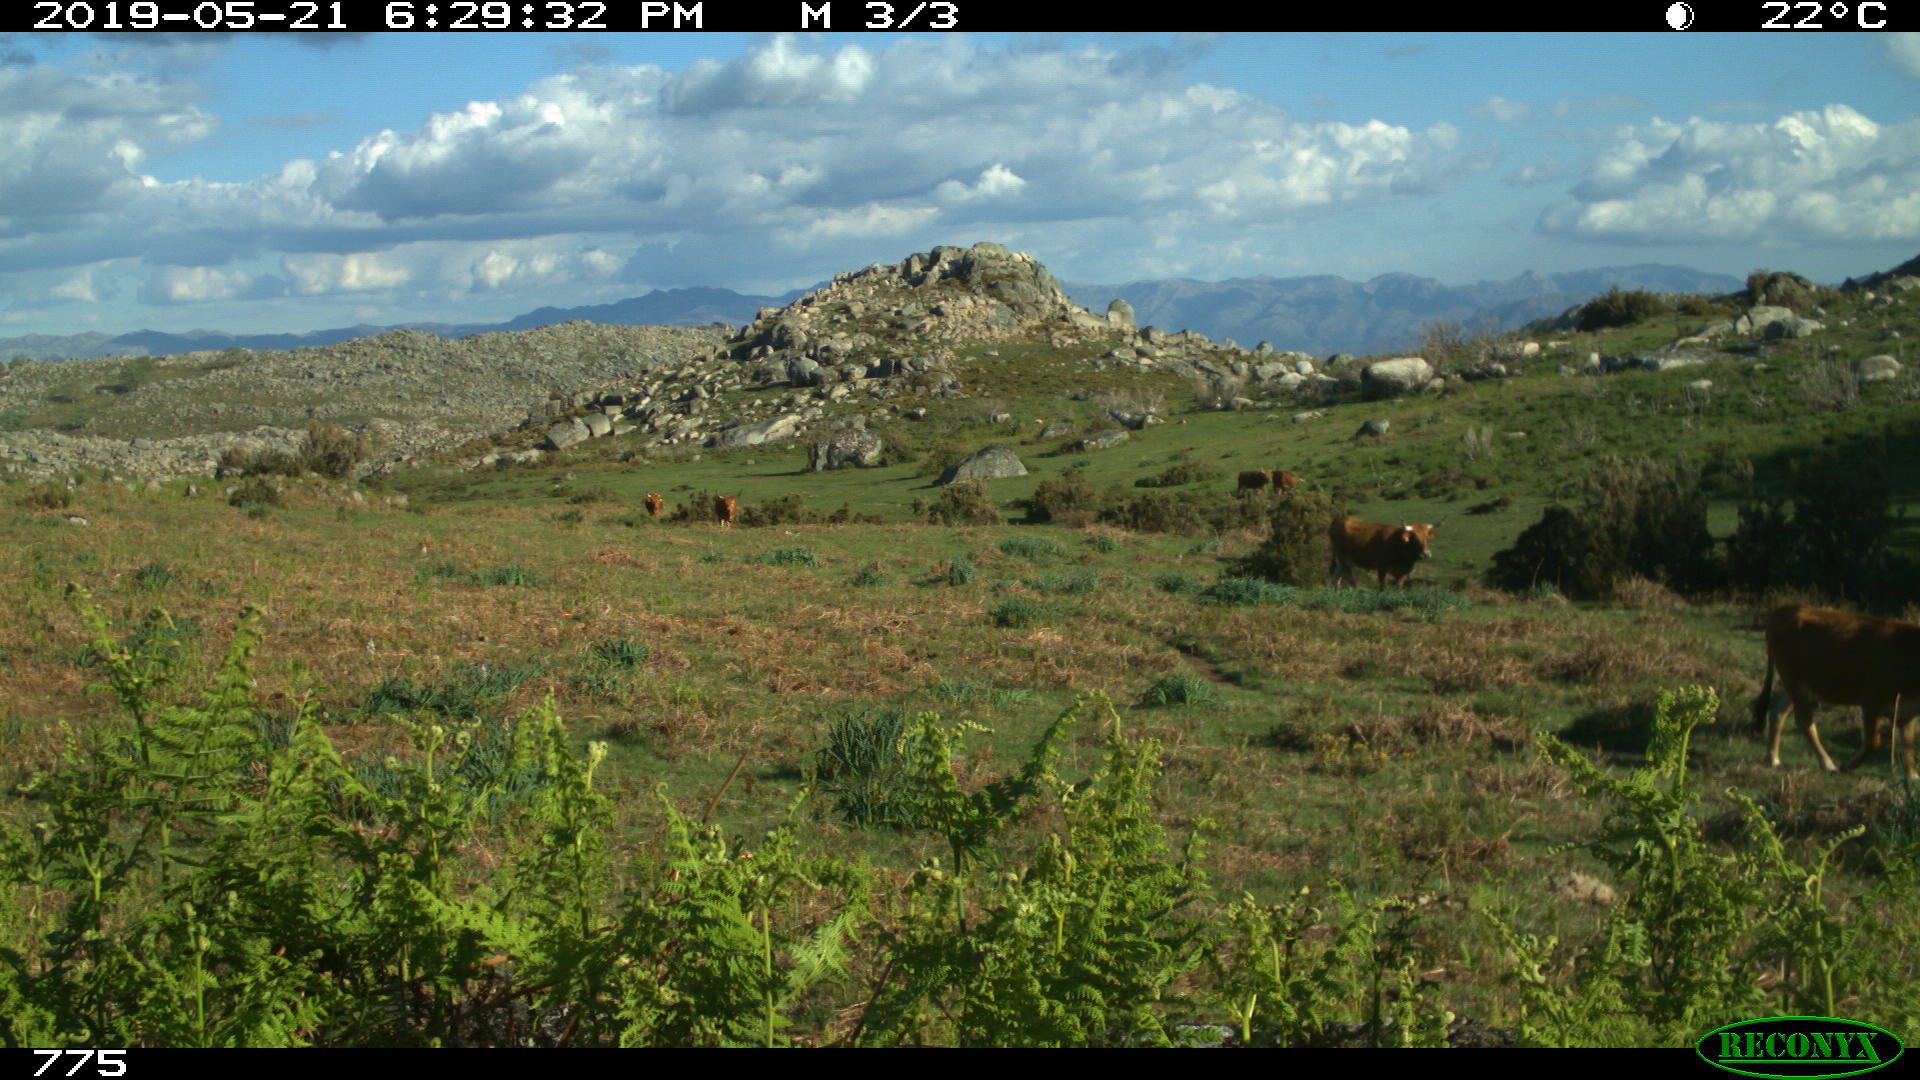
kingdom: Animalia
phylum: Chordata
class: Mammalia
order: Artiodactyla
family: Bovidae
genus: Bos
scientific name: Bos taurus
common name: Domesticated cattle
